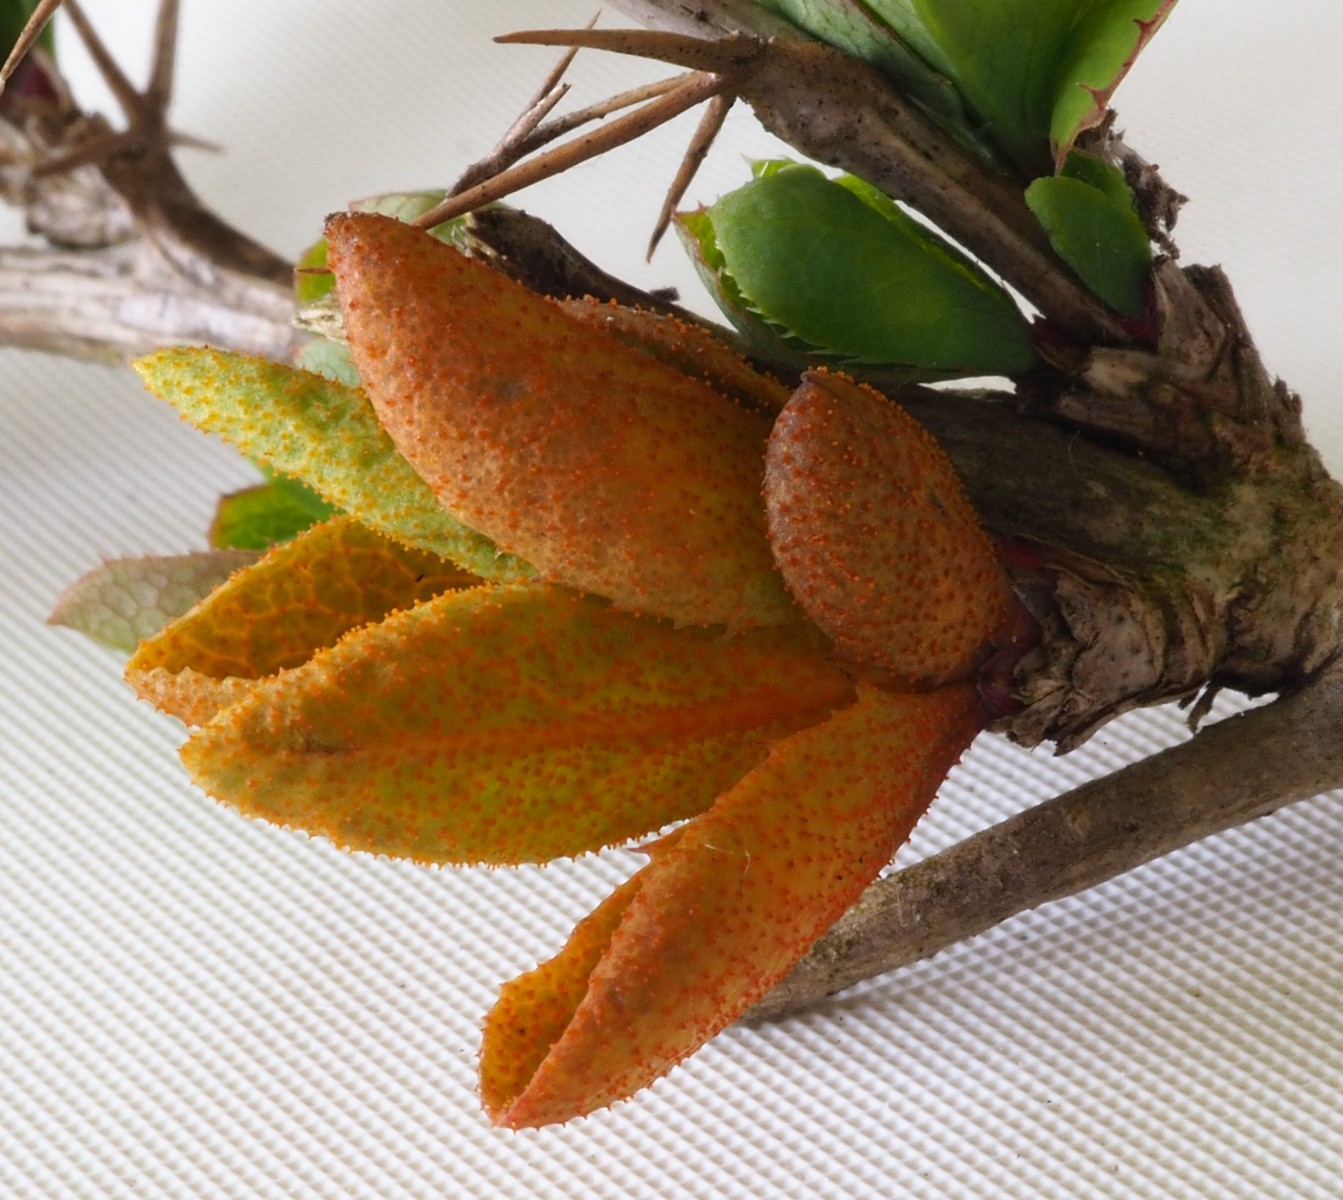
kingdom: Fungi
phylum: Basidiomycota
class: Pucciniomycetes
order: Pucciniales
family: Pucciniaceae
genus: Puccinia
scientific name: Puccinia graminis
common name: græssernes tvecellerust
